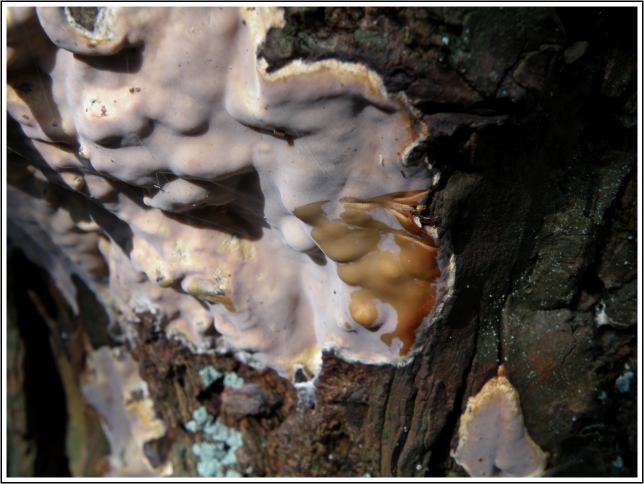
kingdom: Fungi
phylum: Basidiomycota
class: Agaricomycetes
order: Russulales
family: Peniophoraceae
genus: Scytinostroma
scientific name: Scytinostroma hemidichophyticum
